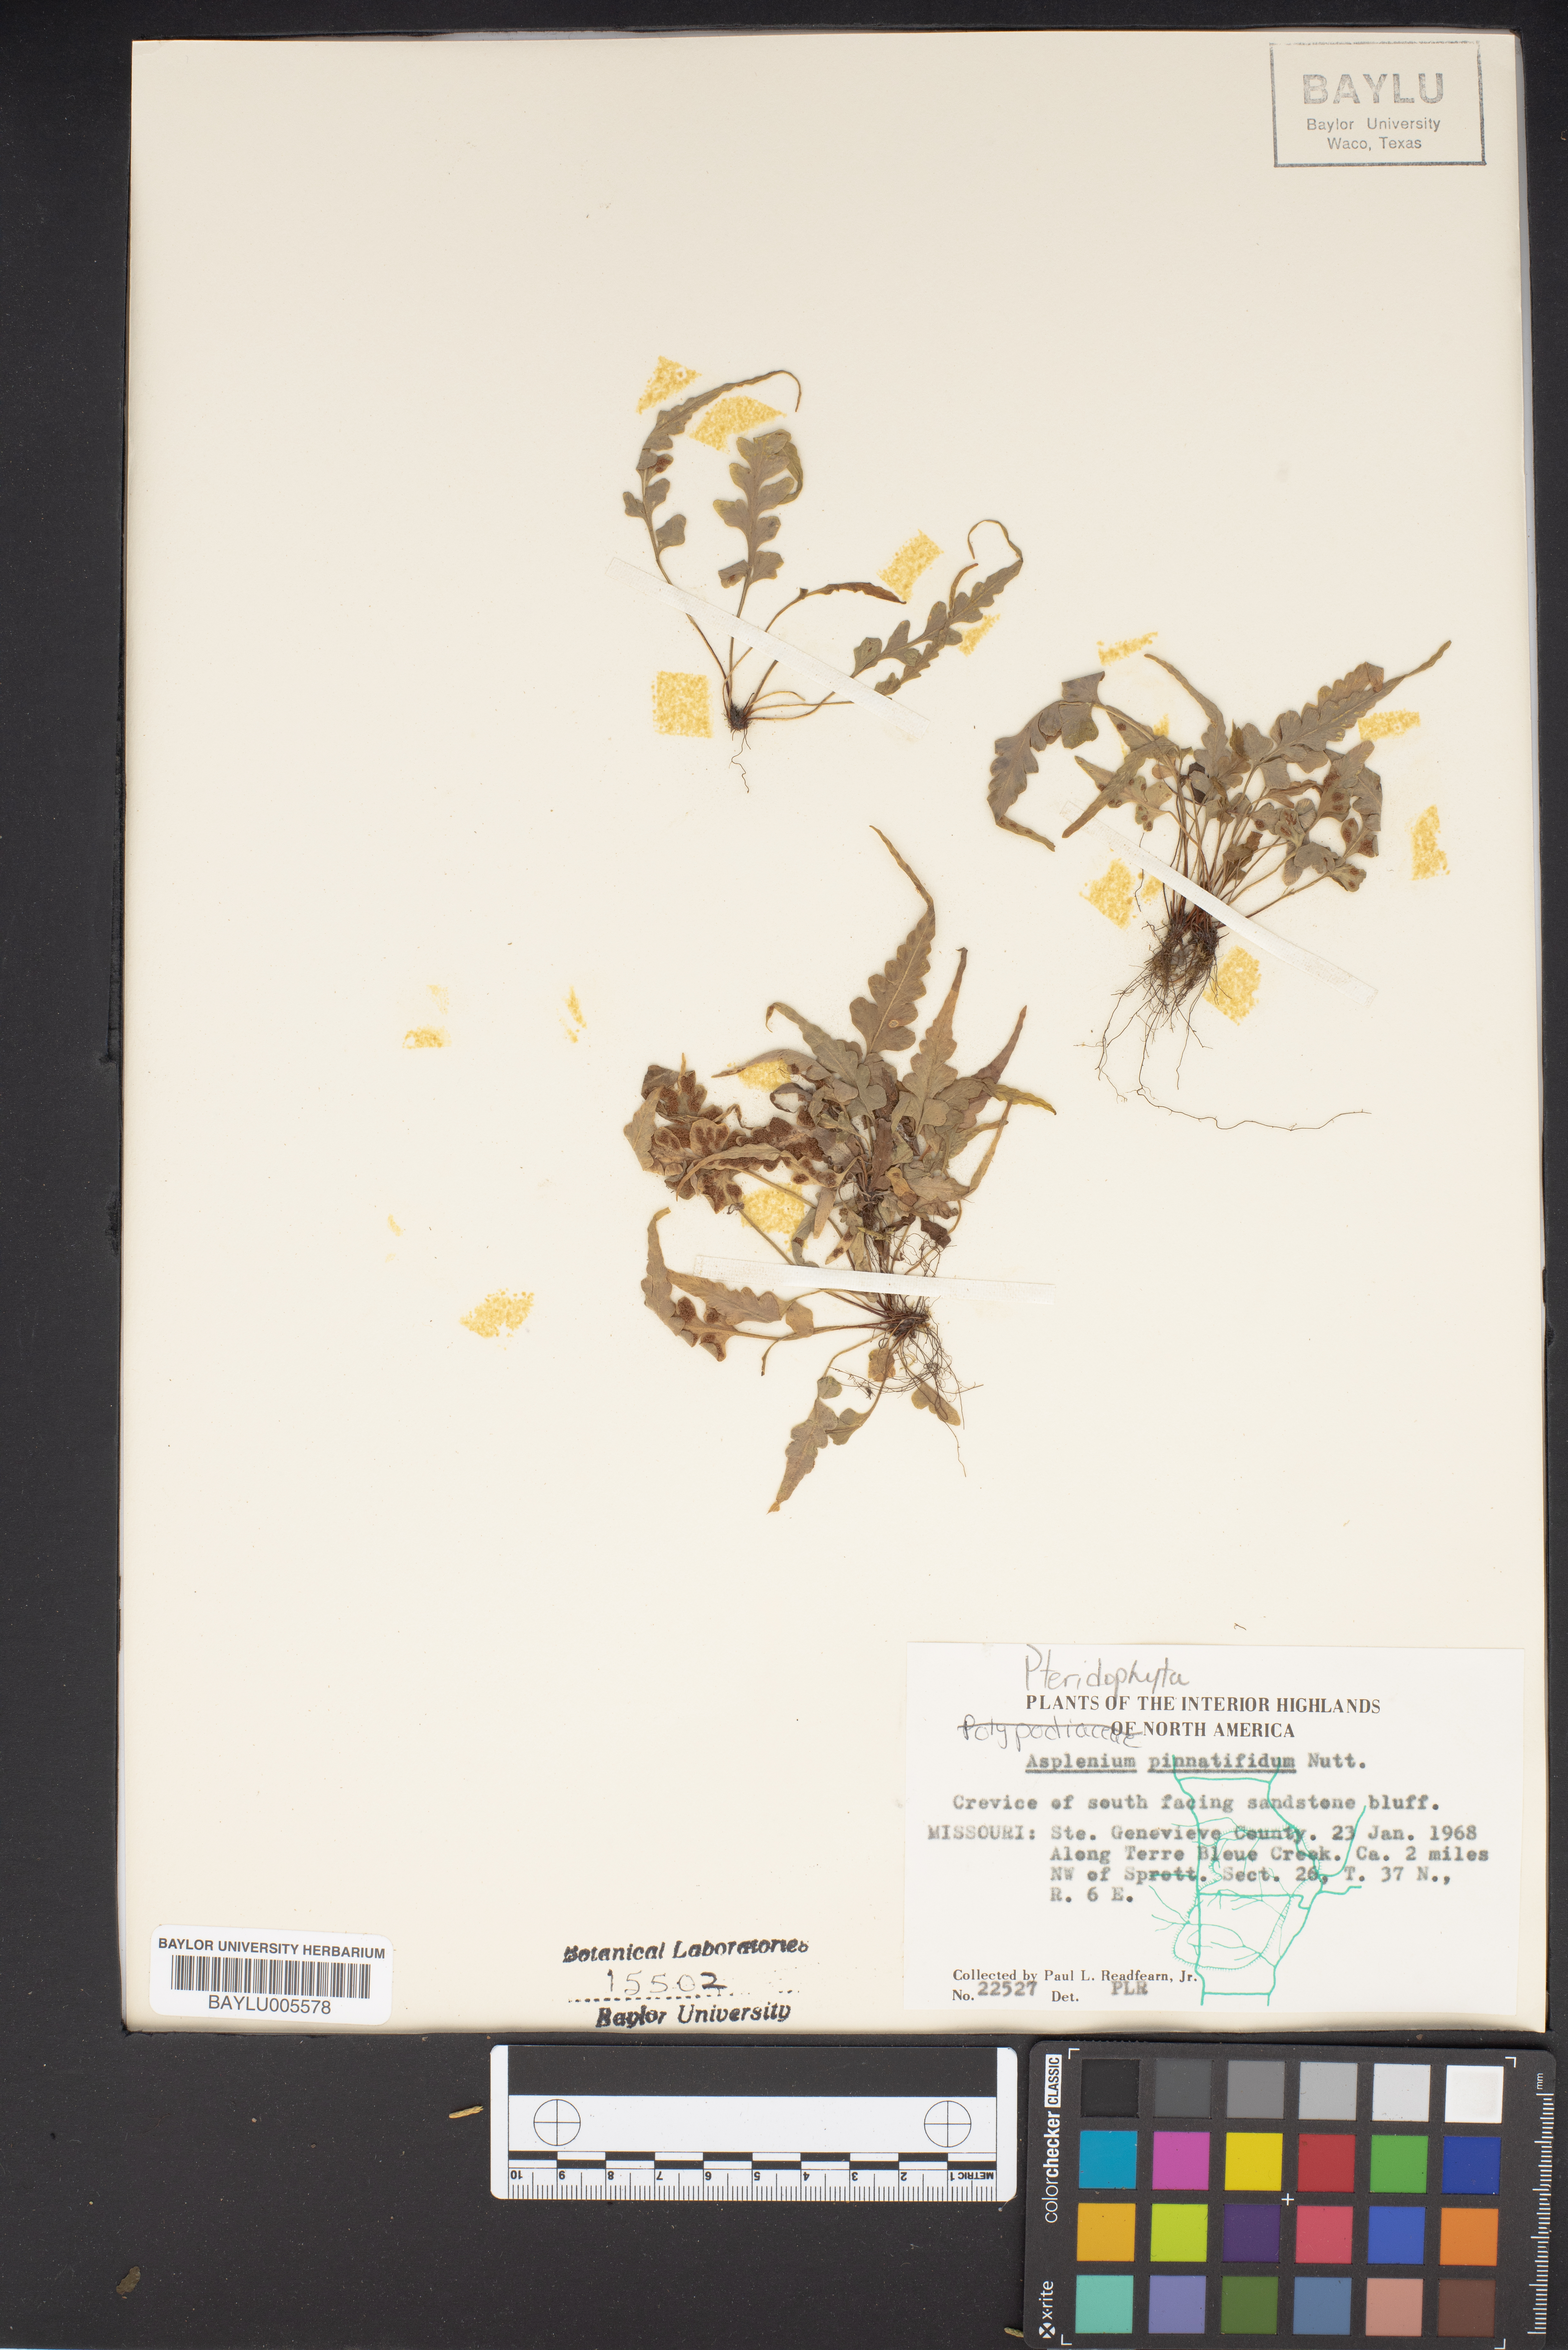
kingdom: Plantae
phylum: Tracheophyta
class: Polypodiopsida
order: Polypodiales
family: Aspleniaceae
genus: Asplenium
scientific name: Asplenium pinnatifidum
